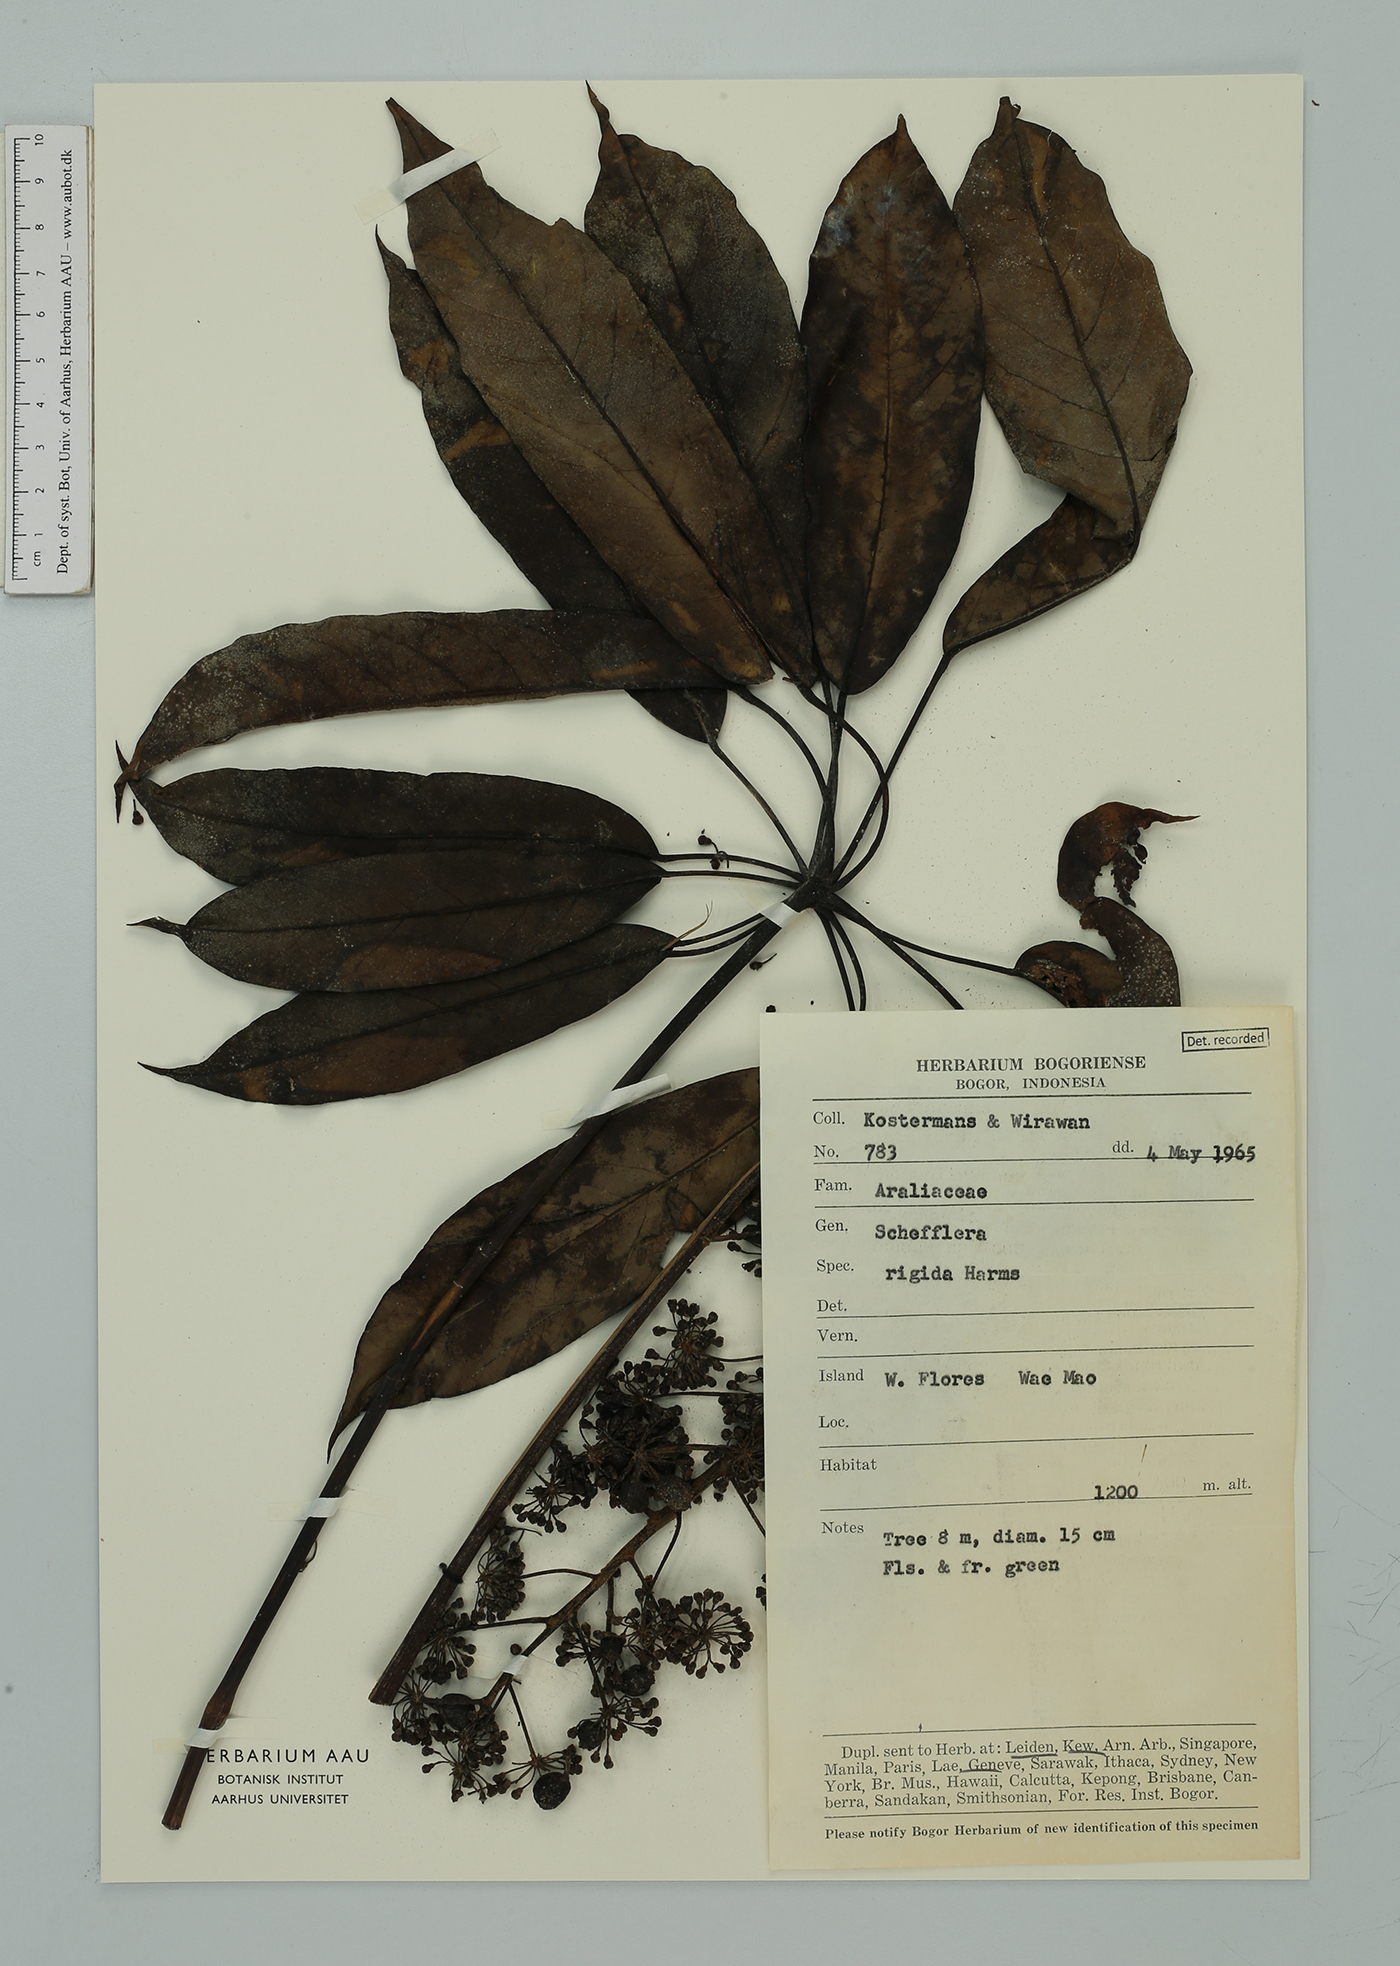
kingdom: Plantae
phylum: Tracheophyta
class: Magnoliopsida
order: Apiales
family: Araliaceae
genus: Heptapleurum
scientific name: Heptapleurum rigidum
